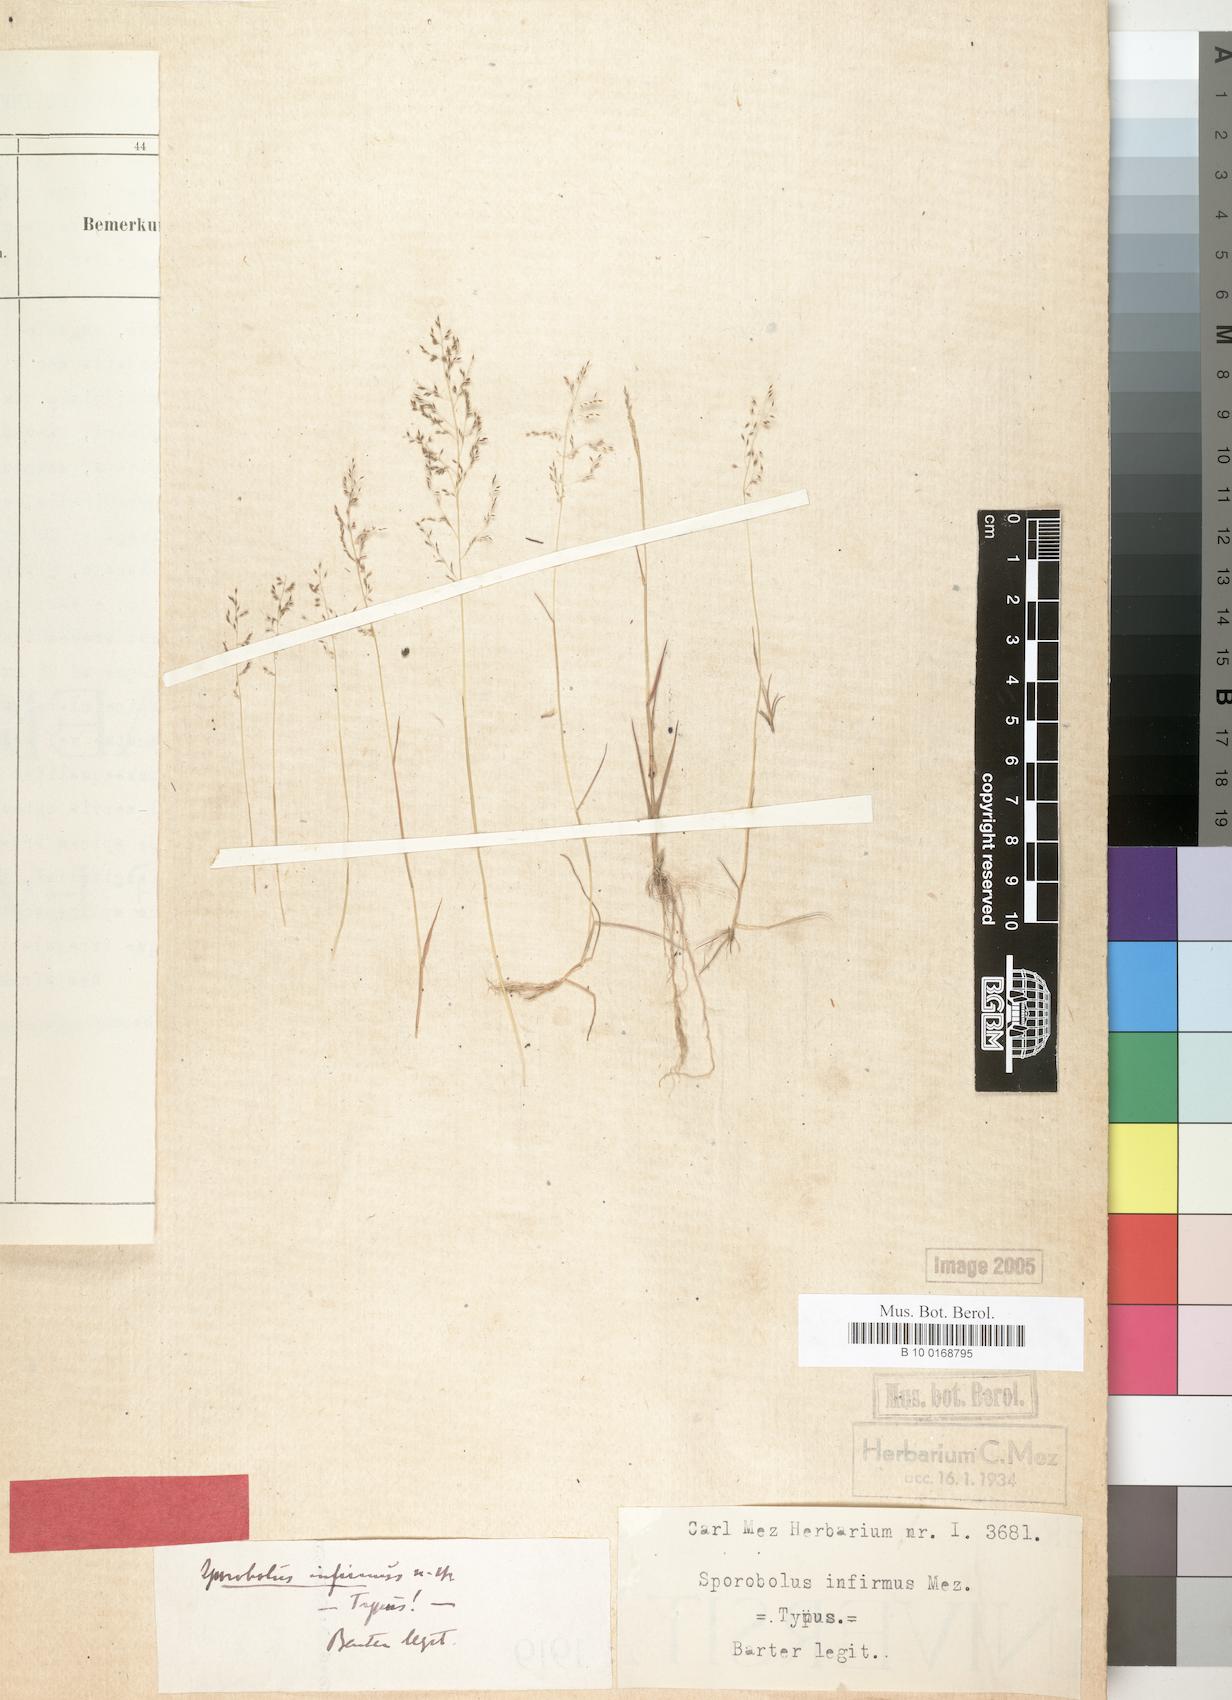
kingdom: Plantae
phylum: Tracheophyta
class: Liliopsida
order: Poales
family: Poaceae
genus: Sporobolus
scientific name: Sporobolus infirmus
